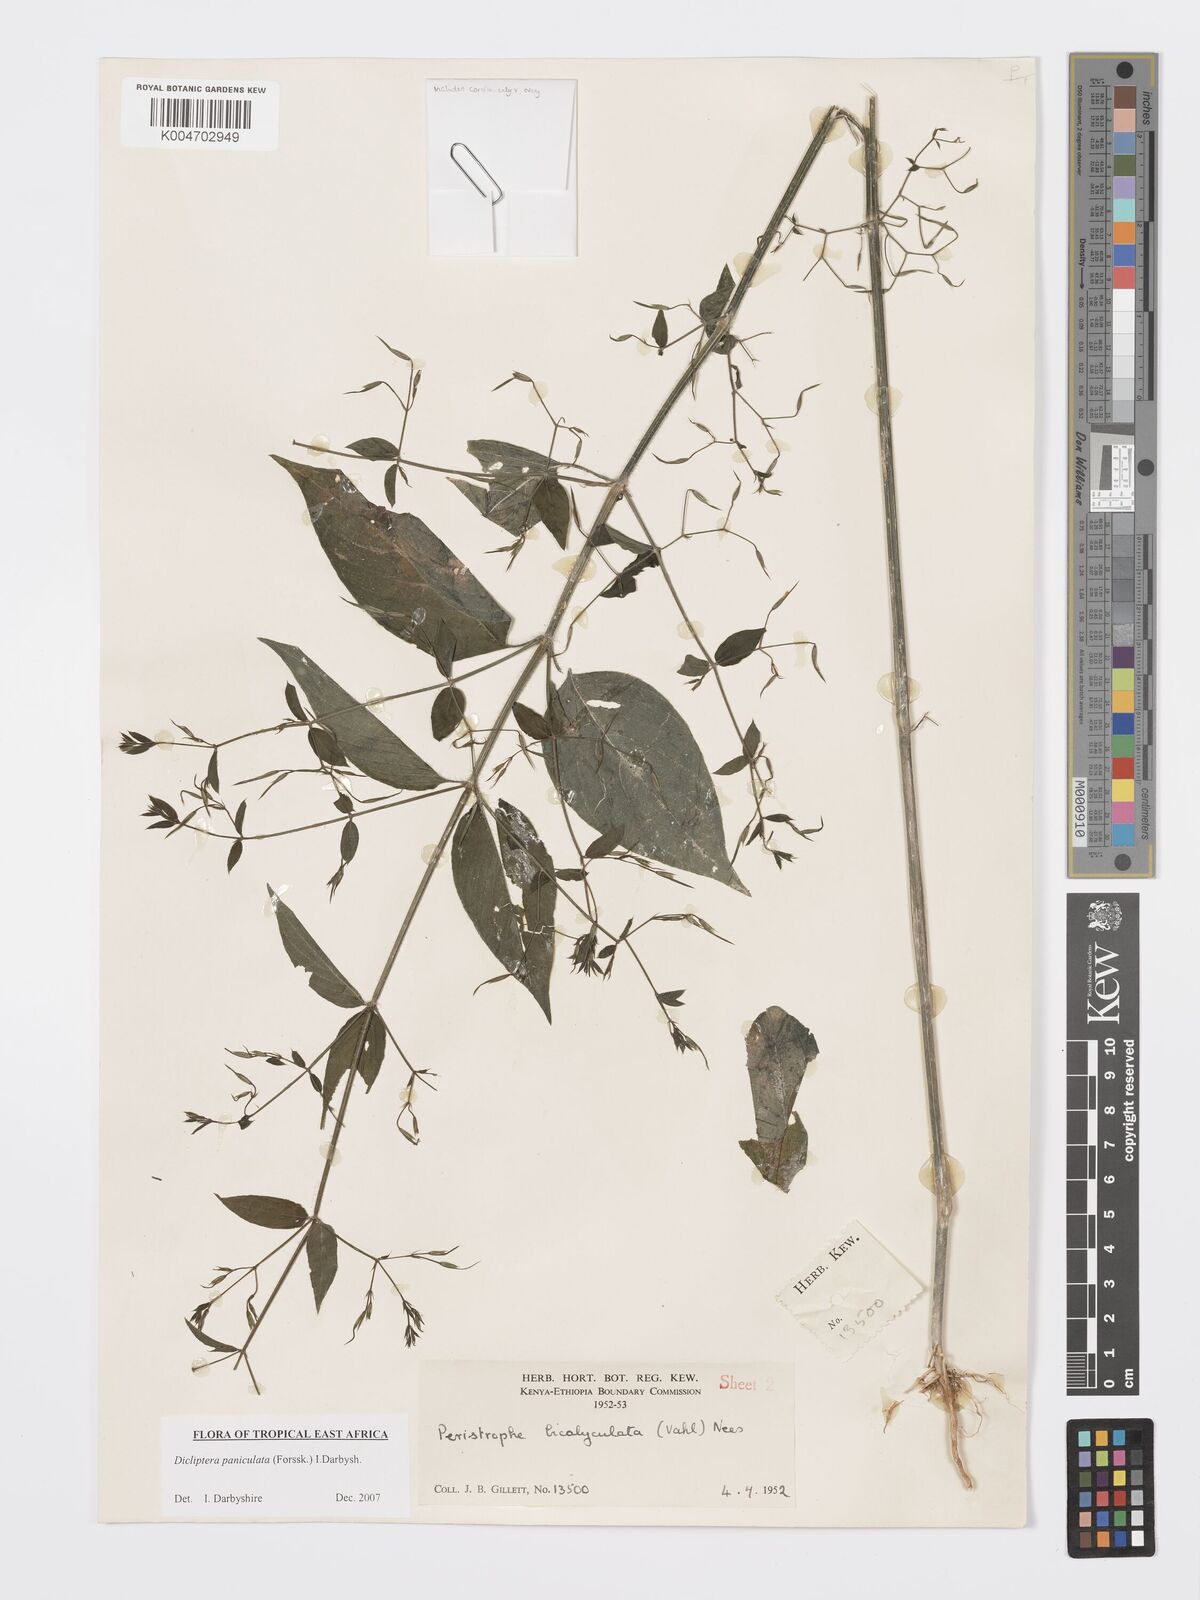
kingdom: Plantae
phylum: Tracheophyta
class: Magnoliopsida
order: Lamiales
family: Acanthaceae
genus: Dicliptera
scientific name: Dicliptera paniculata
